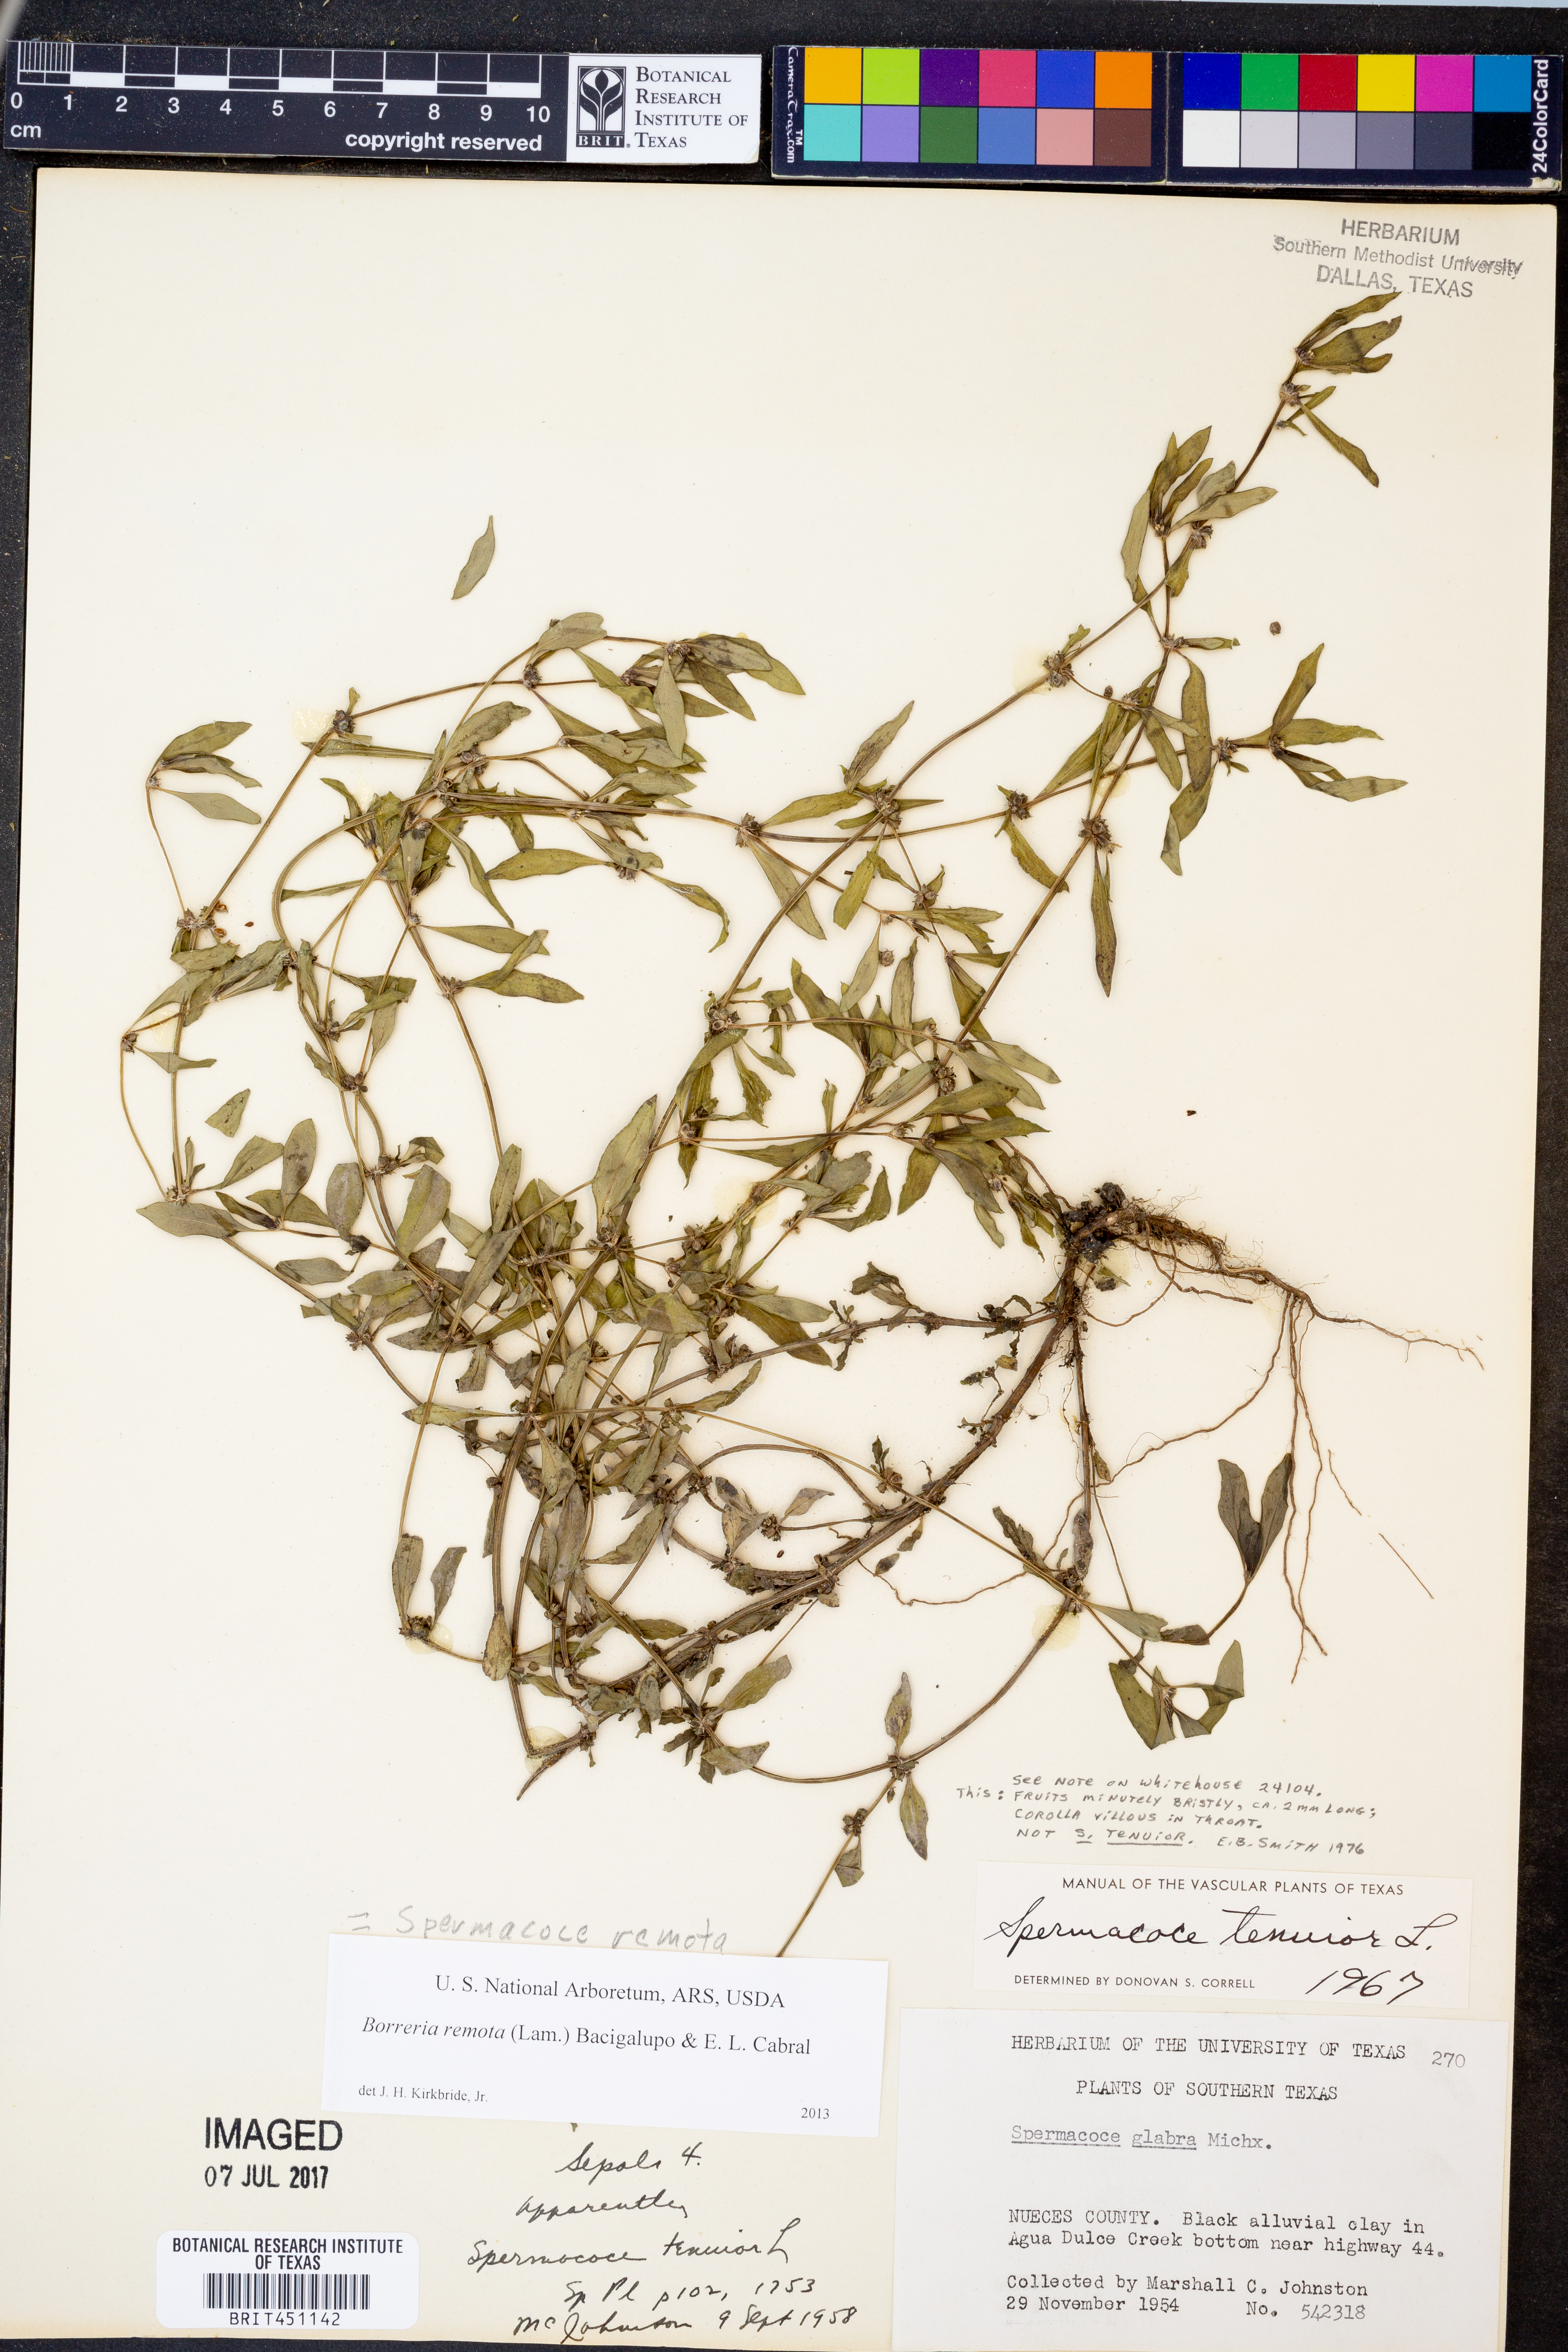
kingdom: Plantae
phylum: Tracheophyta
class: Magnoliopsida
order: Gentianales
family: Rubiaceae
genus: Spermacoce
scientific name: Spermacoce glabra
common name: Smooth buttonweed
